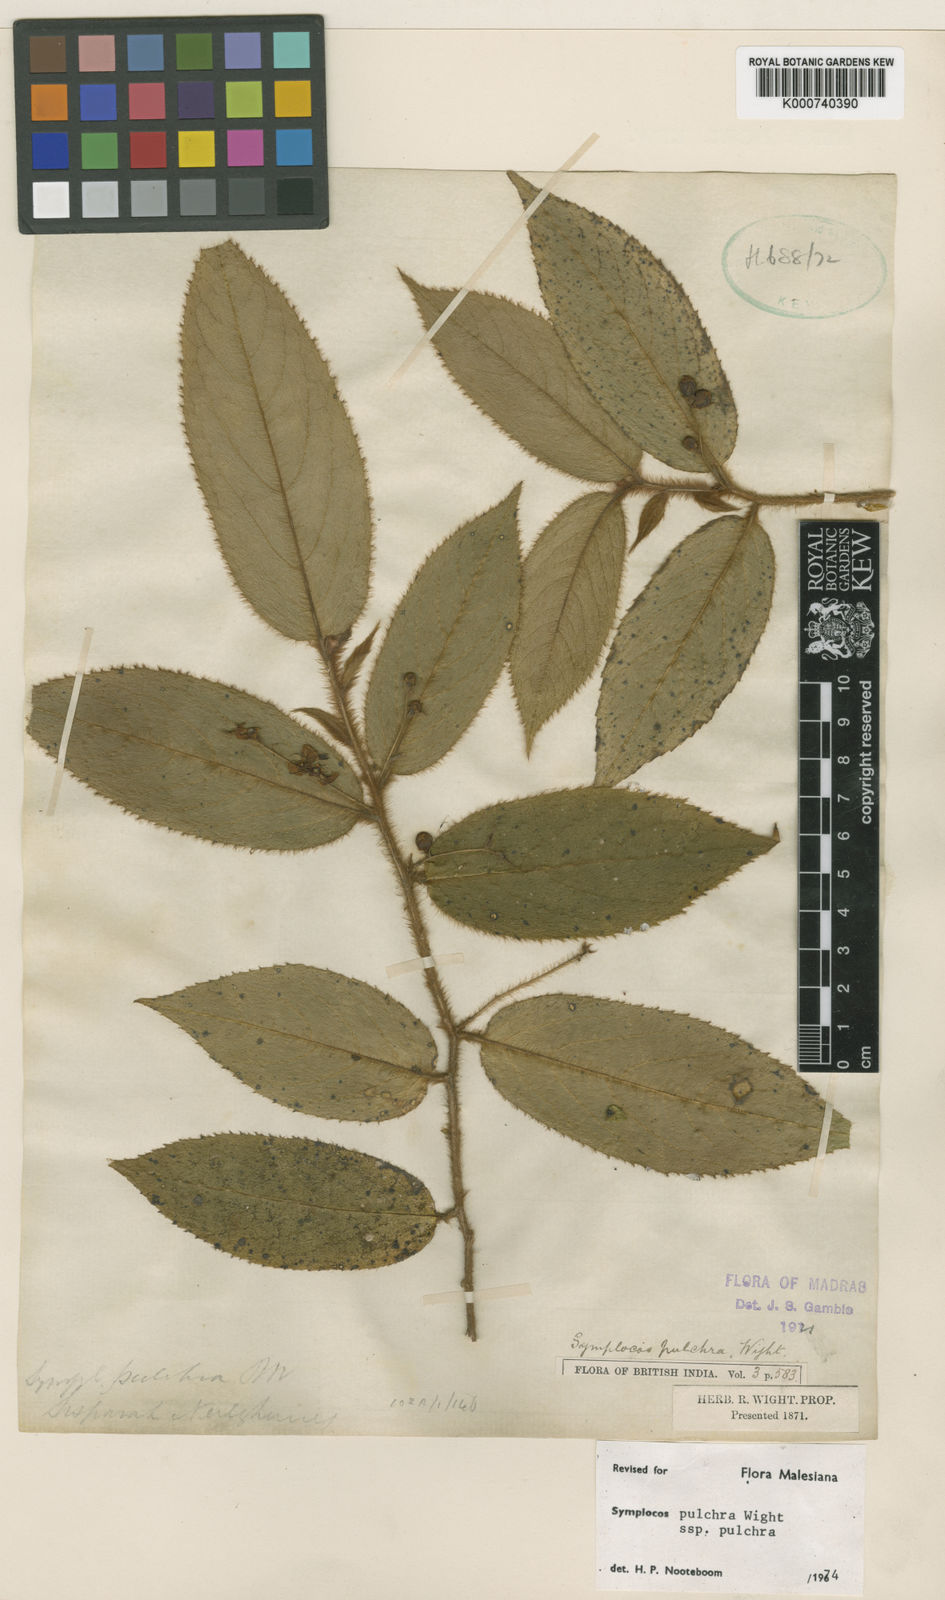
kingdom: Plantae
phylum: Tracheophyta
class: Magnoliopsida
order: Ericales
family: Symplocaceae
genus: Symplocos
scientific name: Symplocos pulchra
